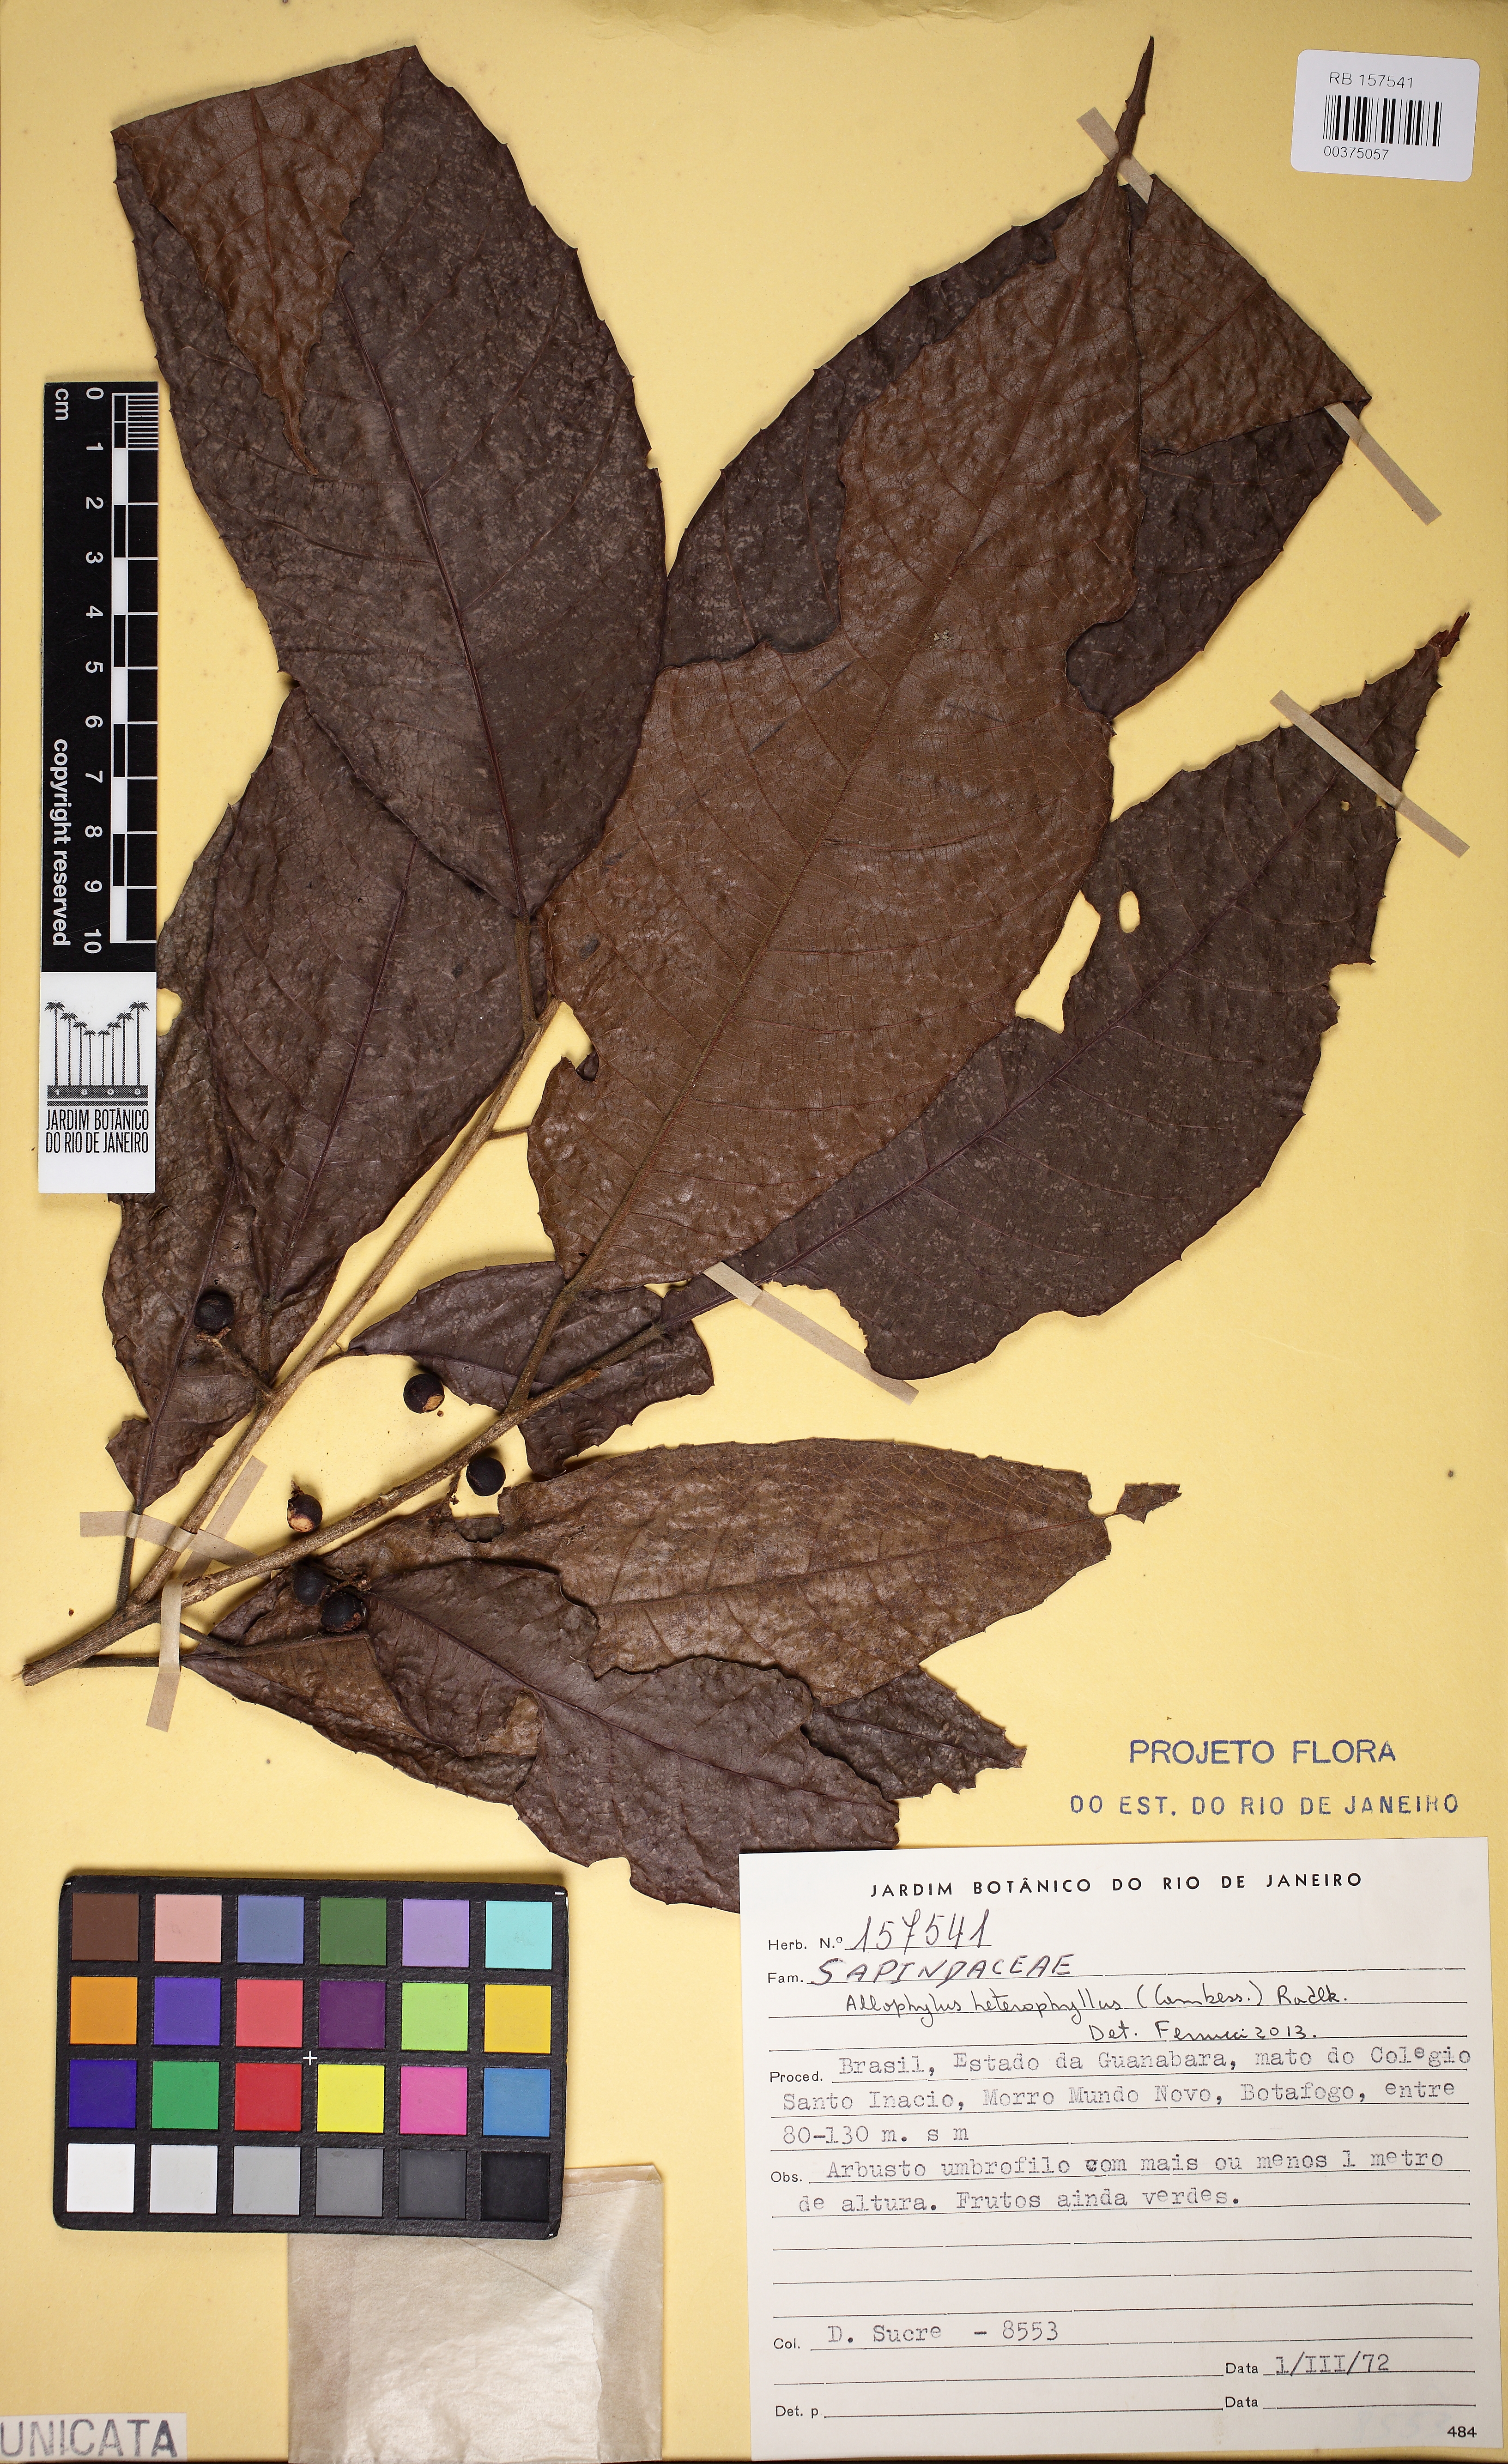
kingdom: Plantae
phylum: Tracheophyta
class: Magnoliopsida
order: Sapindales
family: Sapindaceae
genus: Allophylus
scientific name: Allophylus heterophyllus
